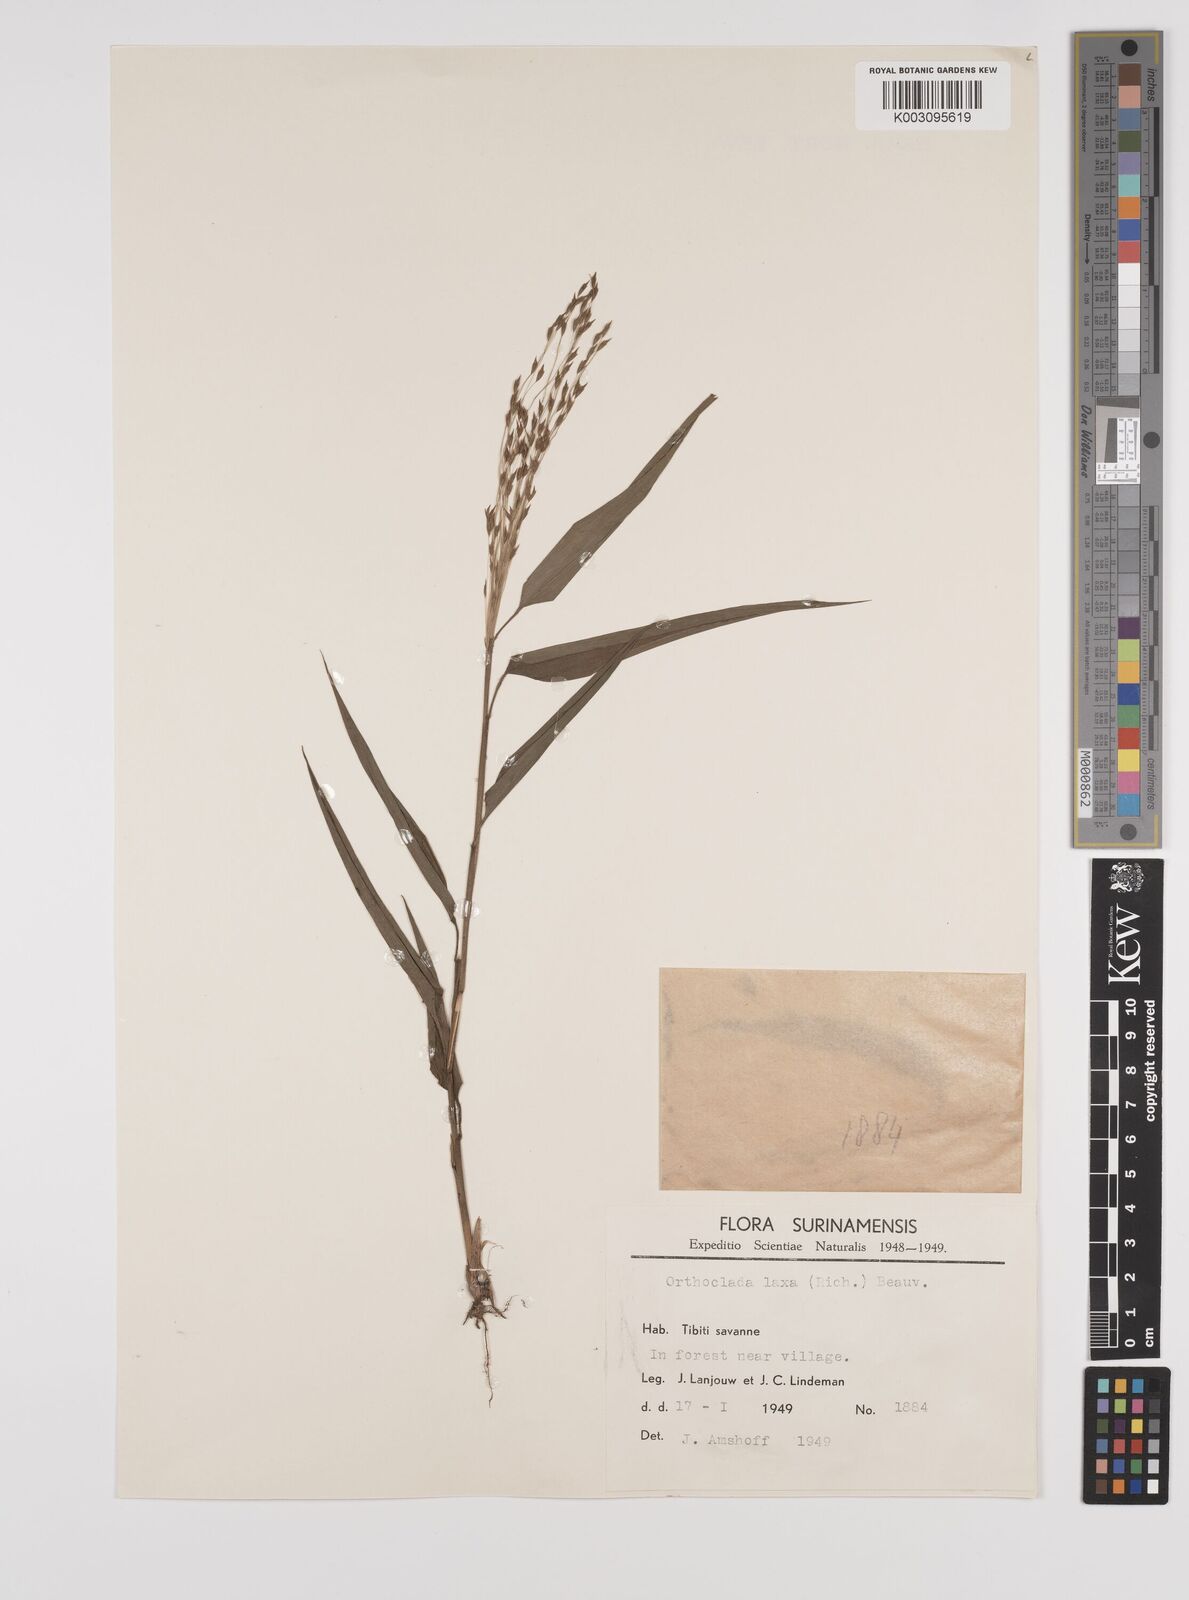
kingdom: Plantae
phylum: Tracheophyta
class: Liliopsida
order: Poales
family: Poaceae
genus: Orthoclada
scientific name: Orthoclada laxa
